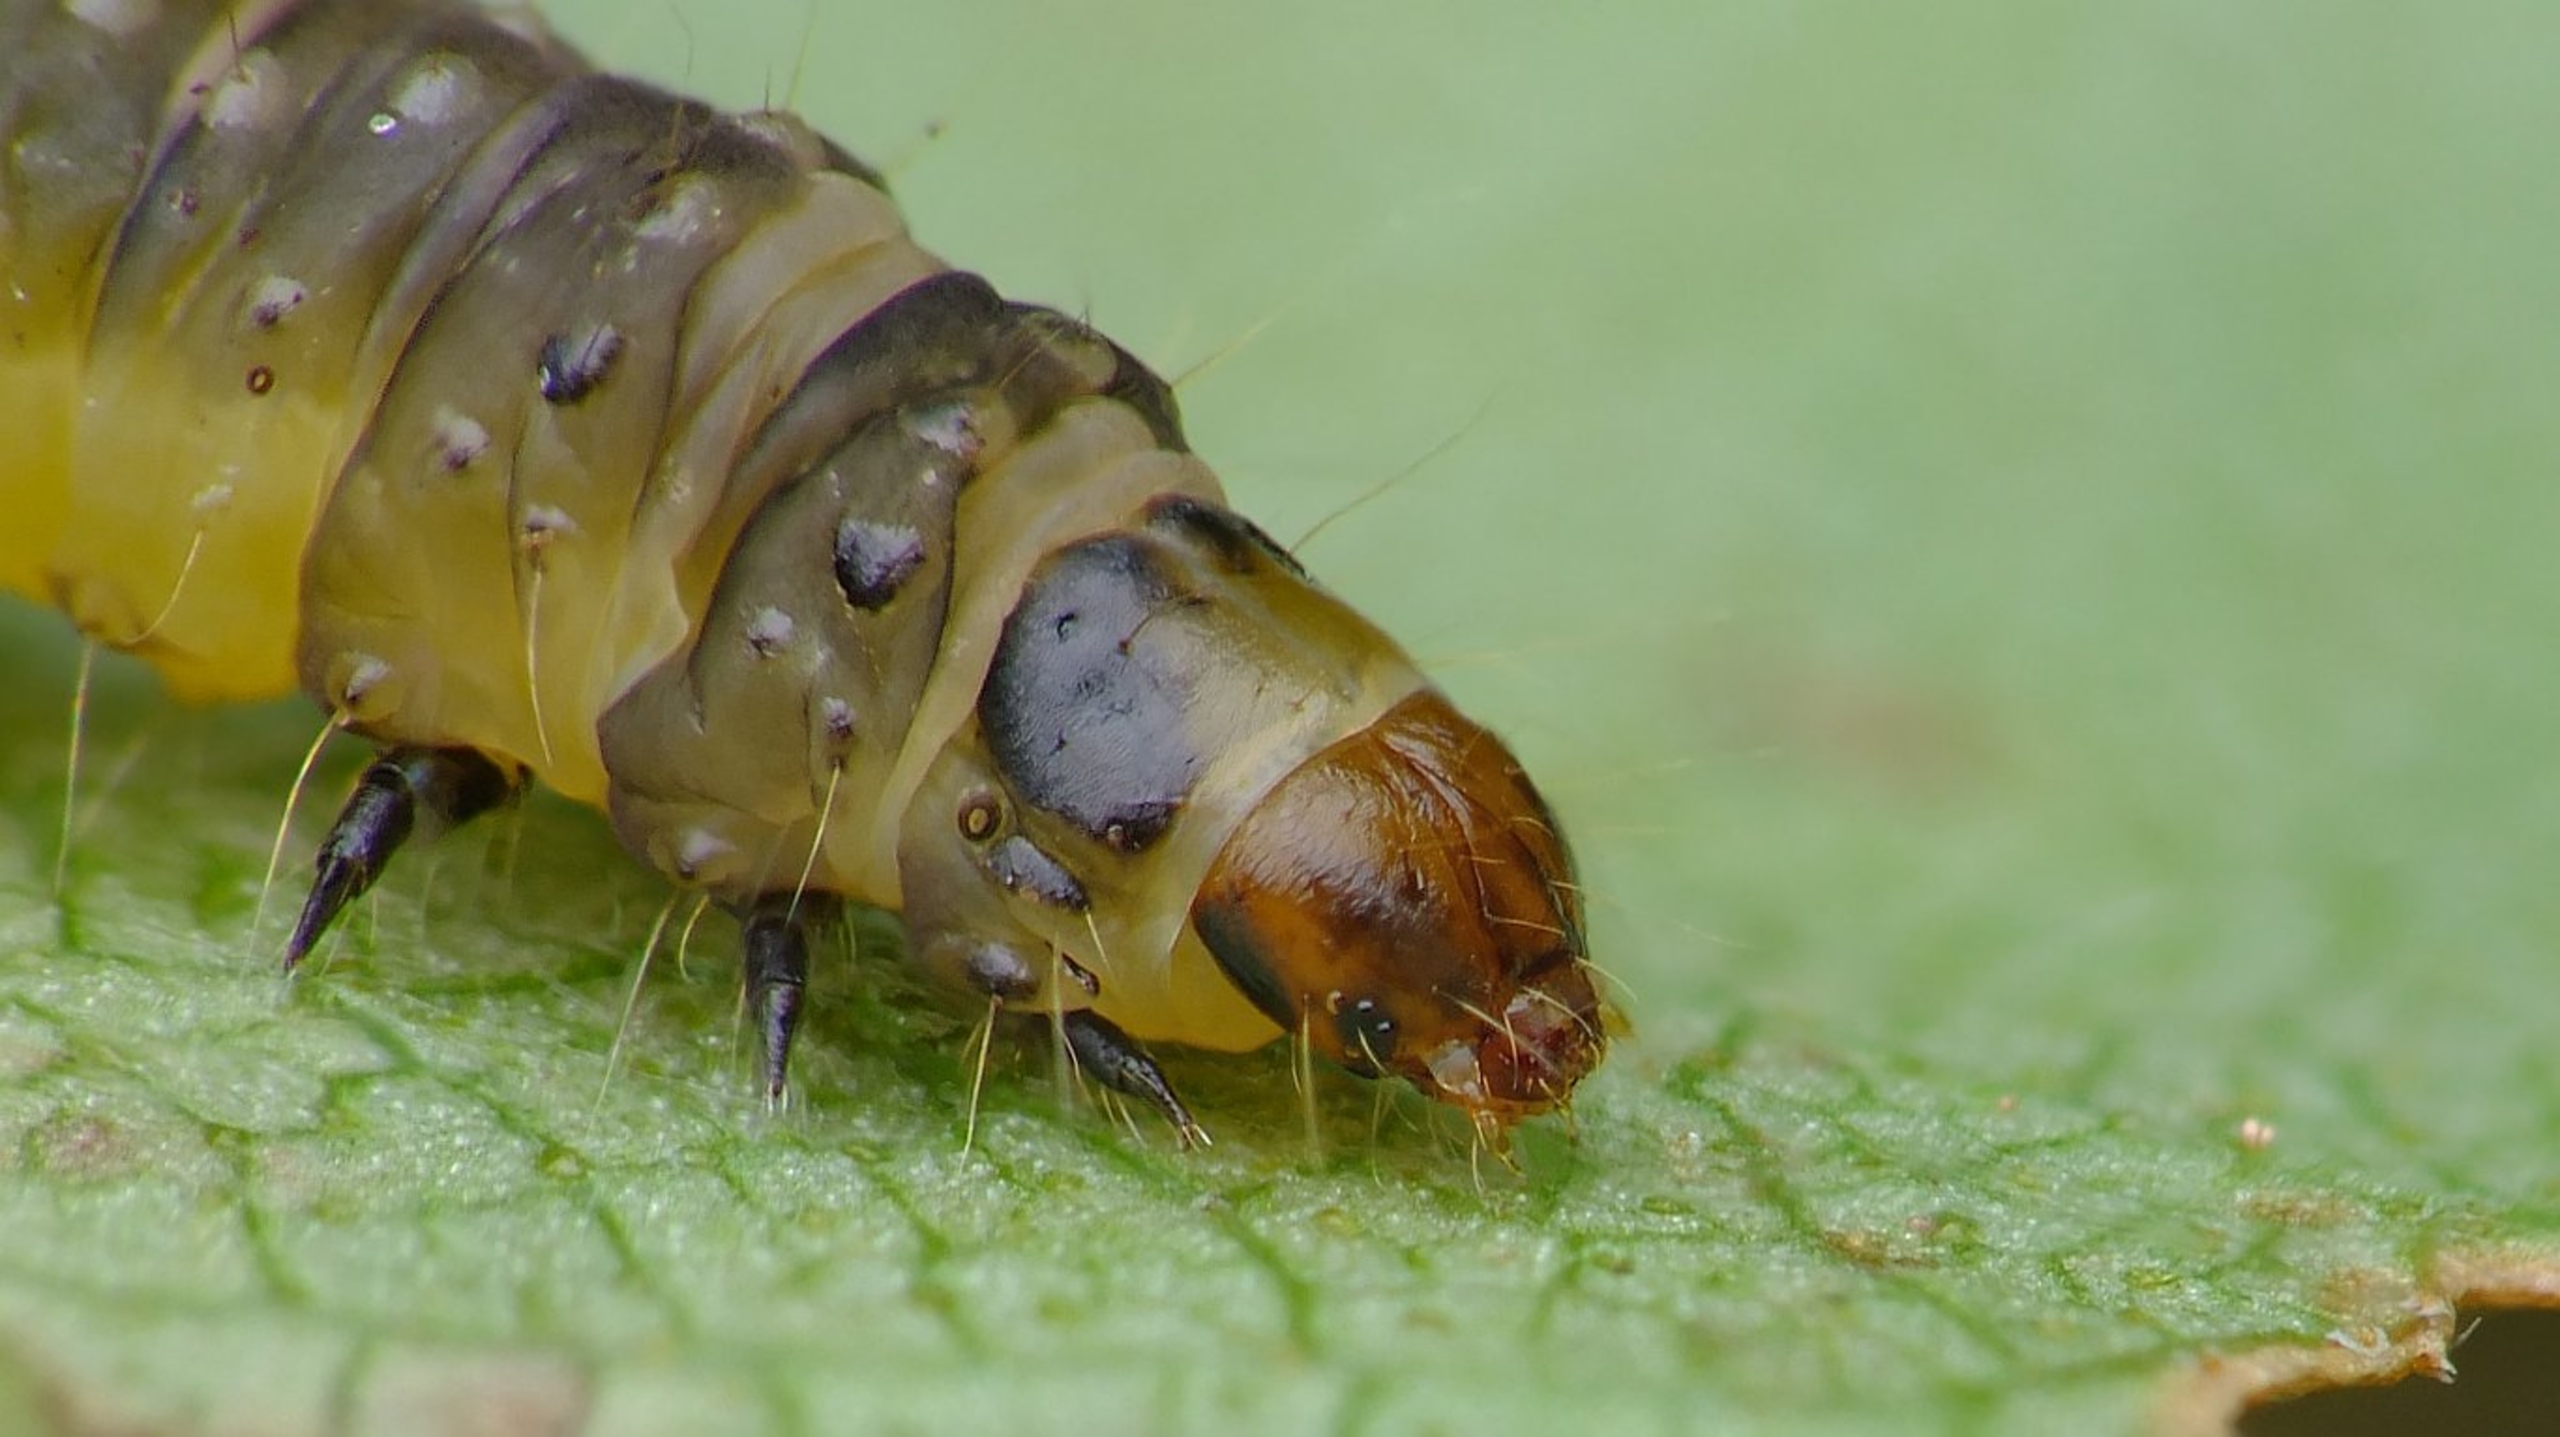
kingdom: Animalia
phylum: Arthropoda
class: Insecta
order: Lepidoptera
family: Tortricidae
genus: Ancylis
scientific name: Ancylis upupana
